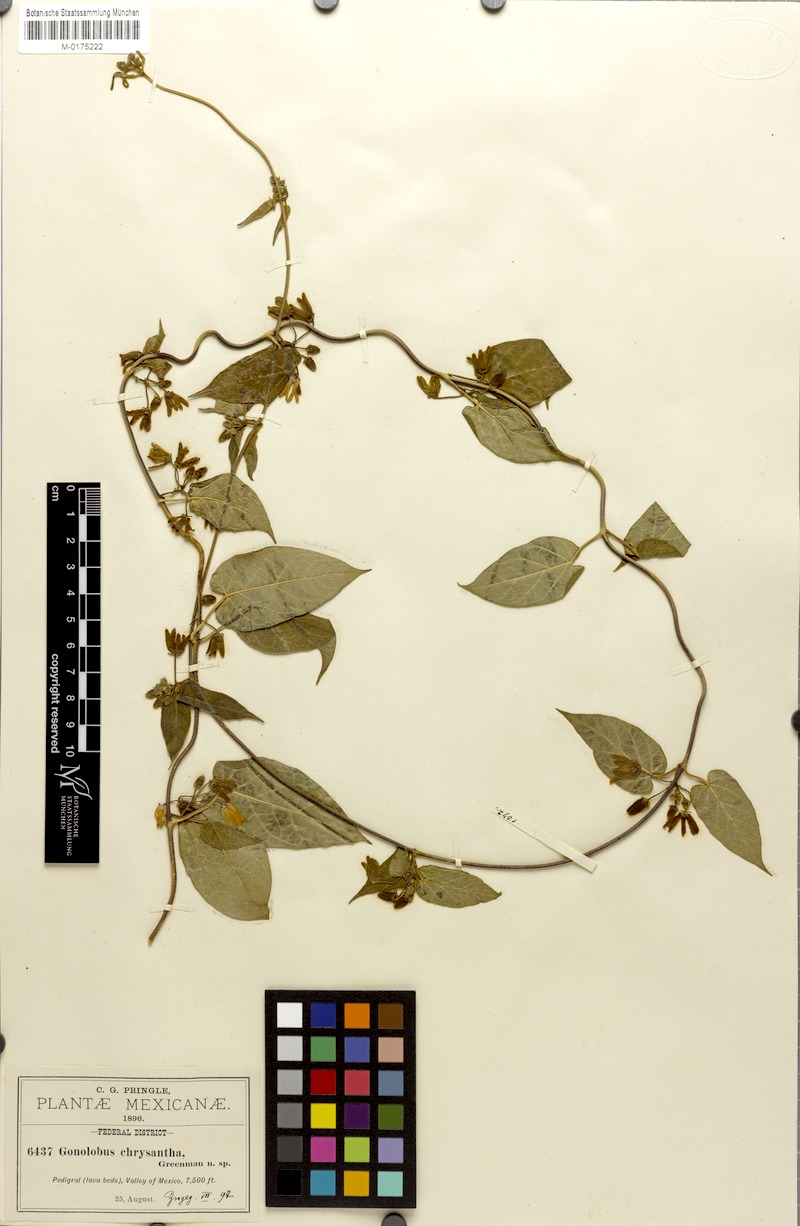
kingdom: Plantae
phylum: Tracheophyta
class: Magnoliopsida
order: Gentianales
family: Apocynaceae
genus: Matelea
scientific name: Matelea chrysantha
